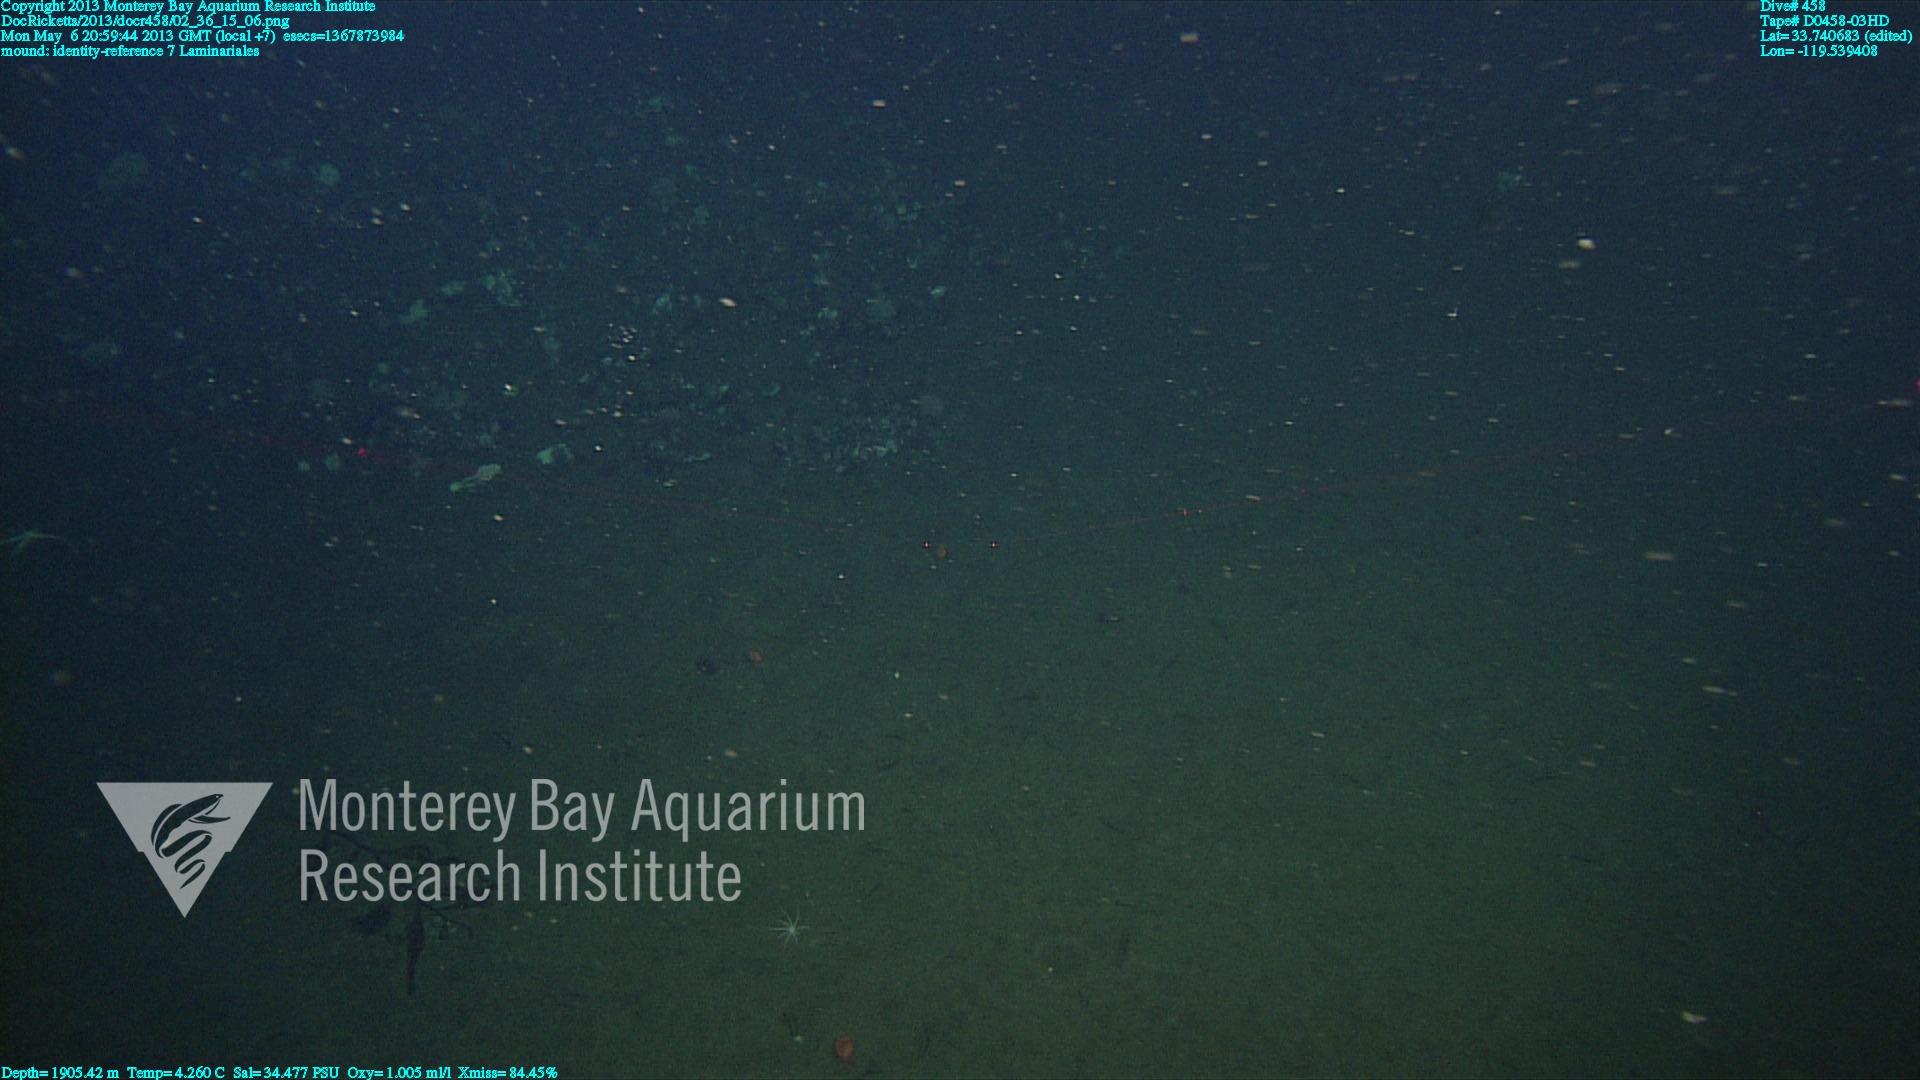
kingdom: Animalia
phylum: Porifera
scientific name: Porifera
